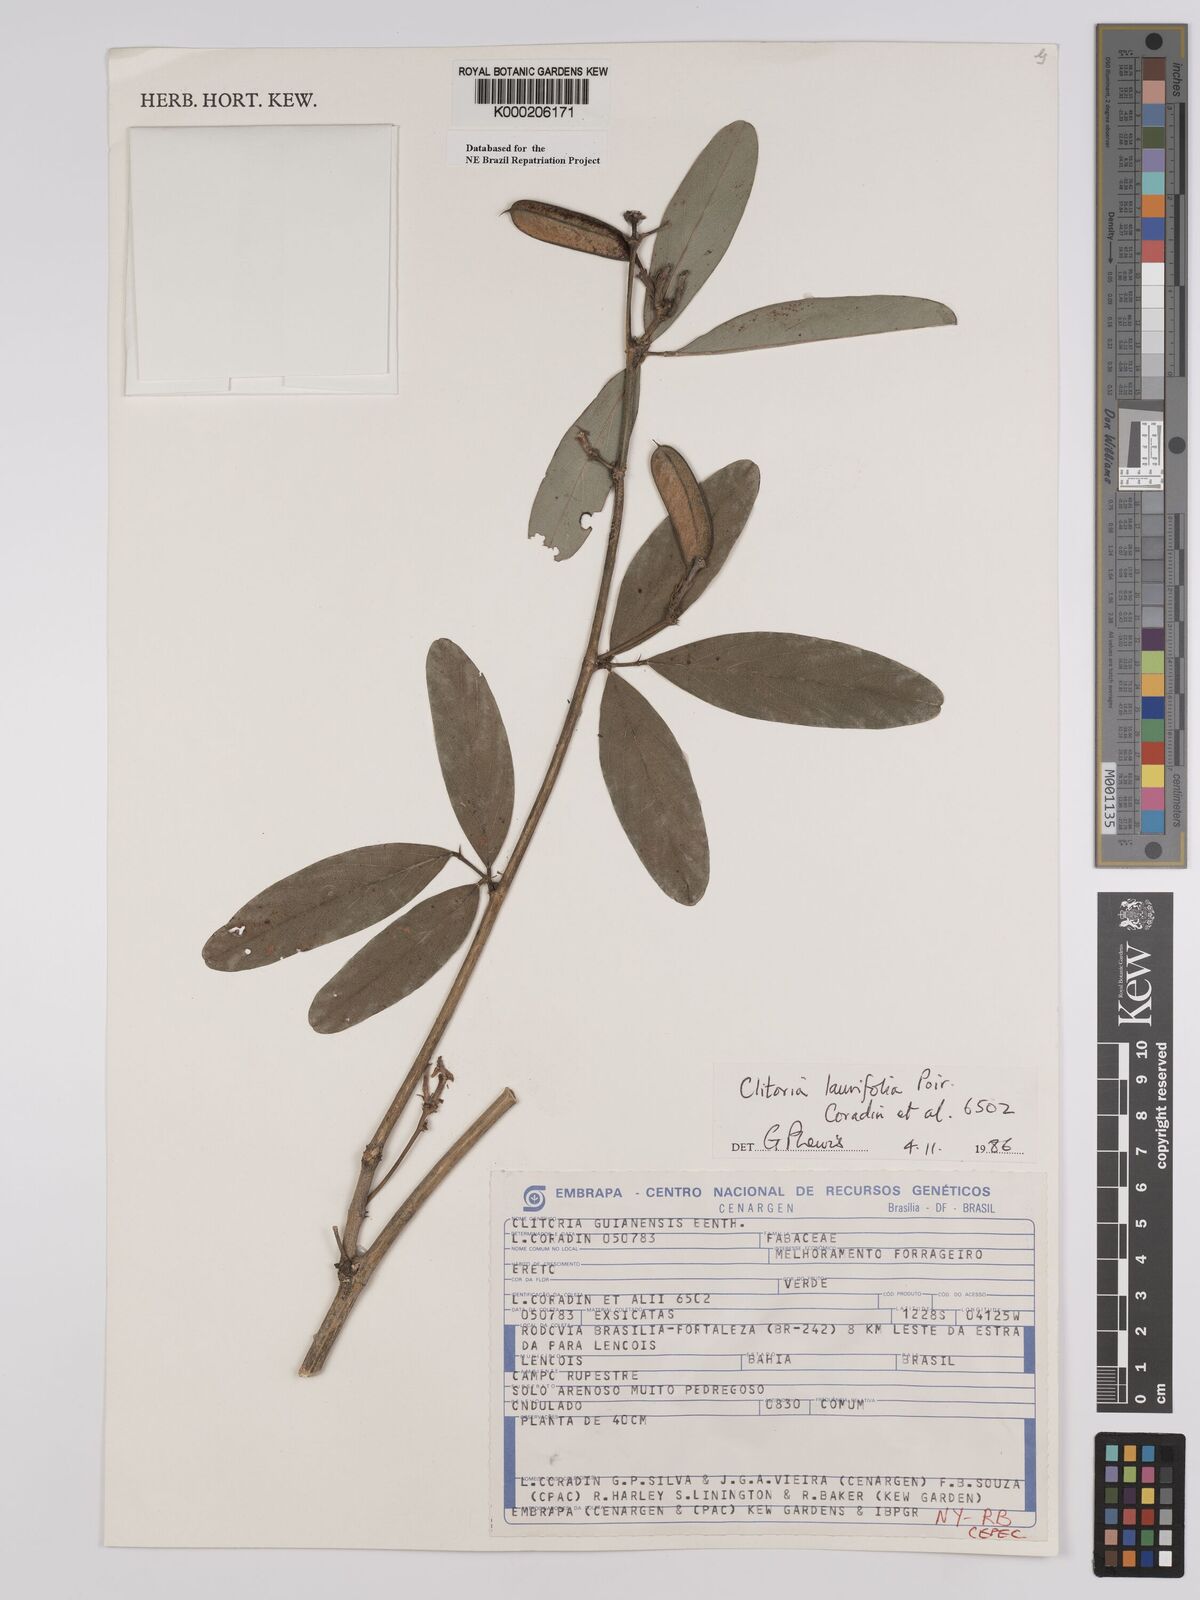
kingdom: Plantae
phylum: Tracheophyta
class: Magnoliopsida
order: Fabales
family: Fabaceae
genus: Clitoria
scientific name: Clitoria laurifolia
